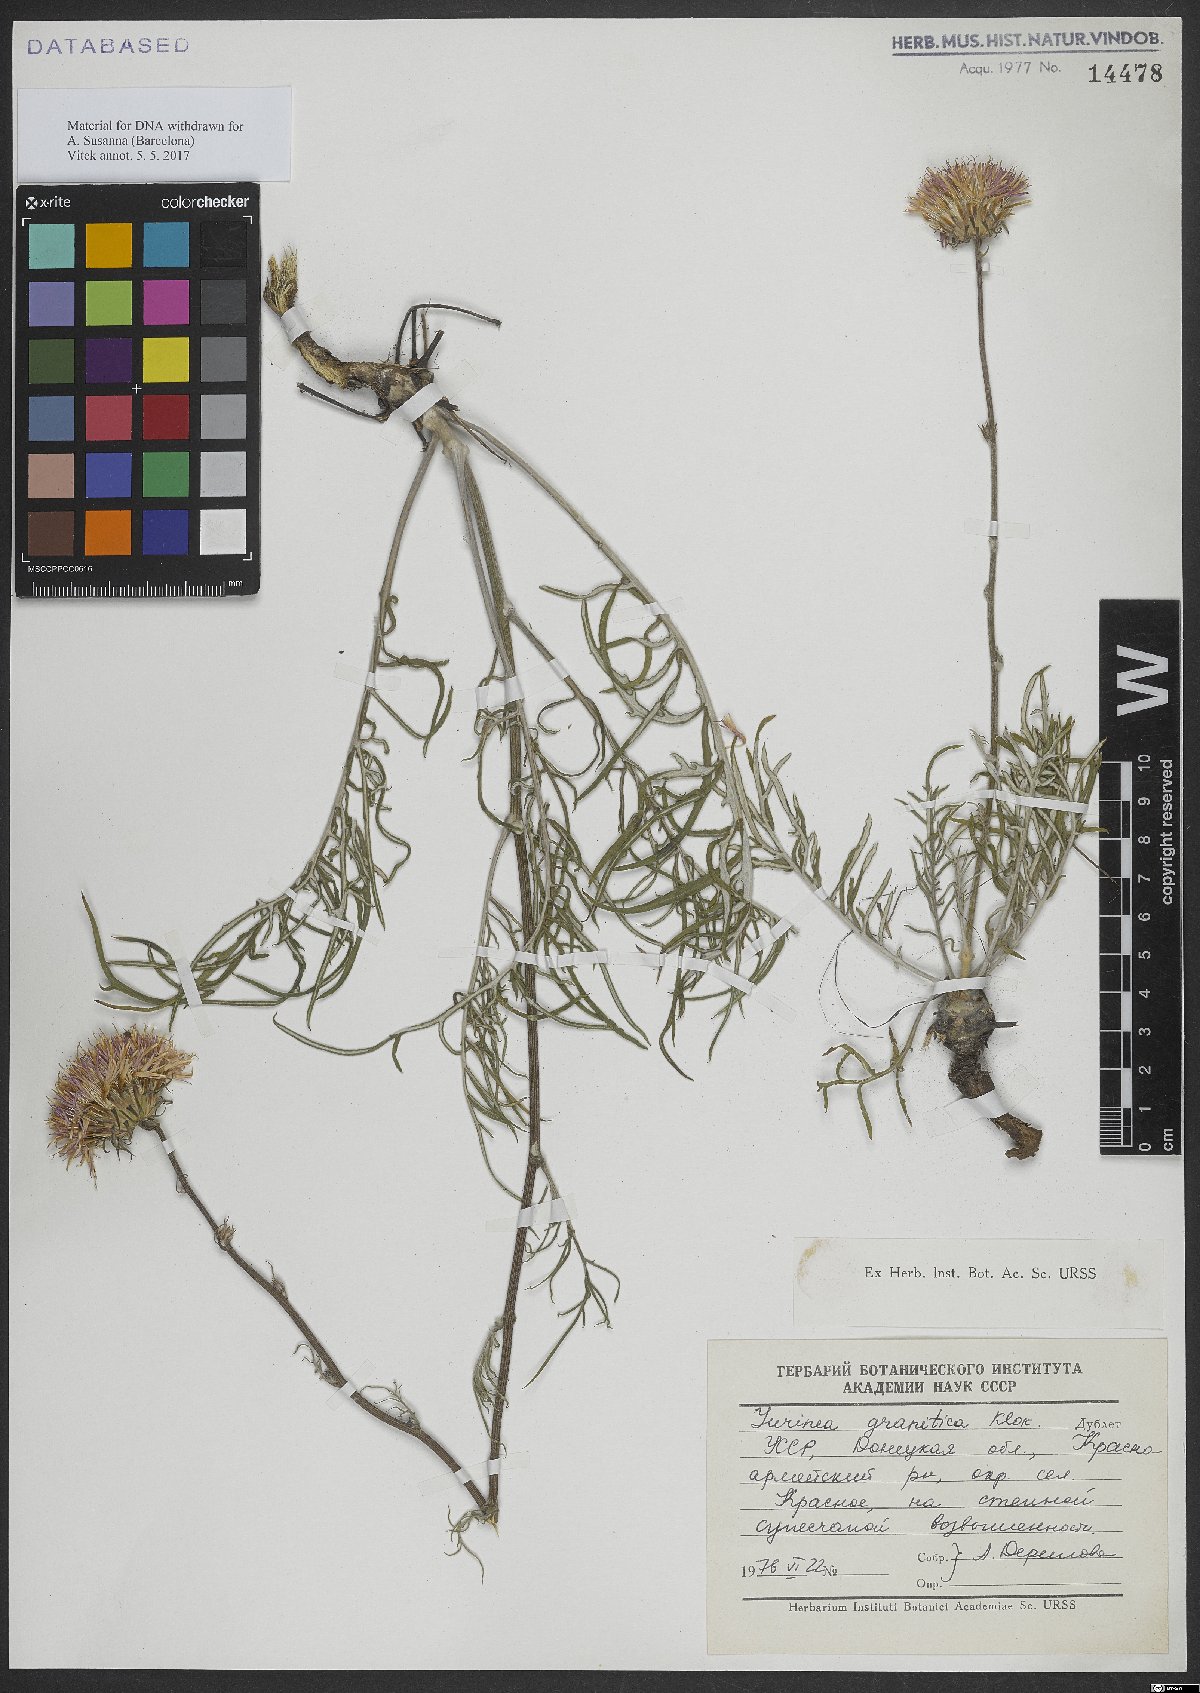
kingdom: Plantae
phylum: Tracheophyta
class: Magnoliopsida
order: Asterales
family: Asteraceae
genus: Jurinea
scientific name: Jurinea
